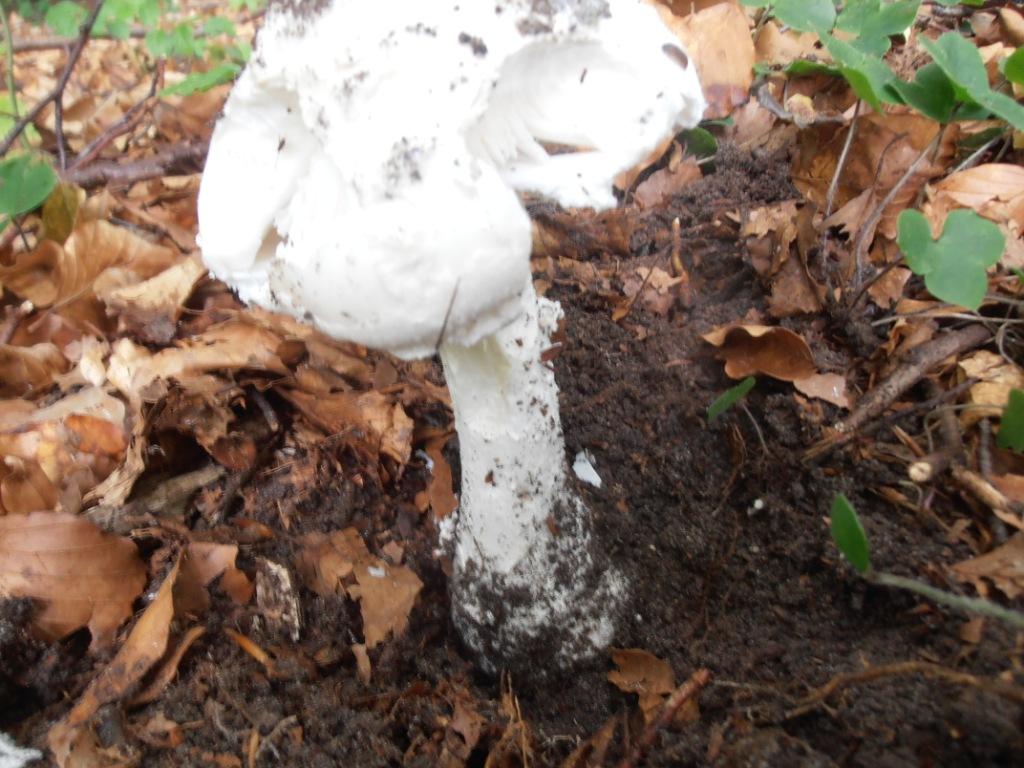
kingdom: Fungi
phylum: Basidiomycota
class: Agaricomycetes
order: Agaricales
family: Amanitaceae
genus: Amanita
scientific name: Amanita
